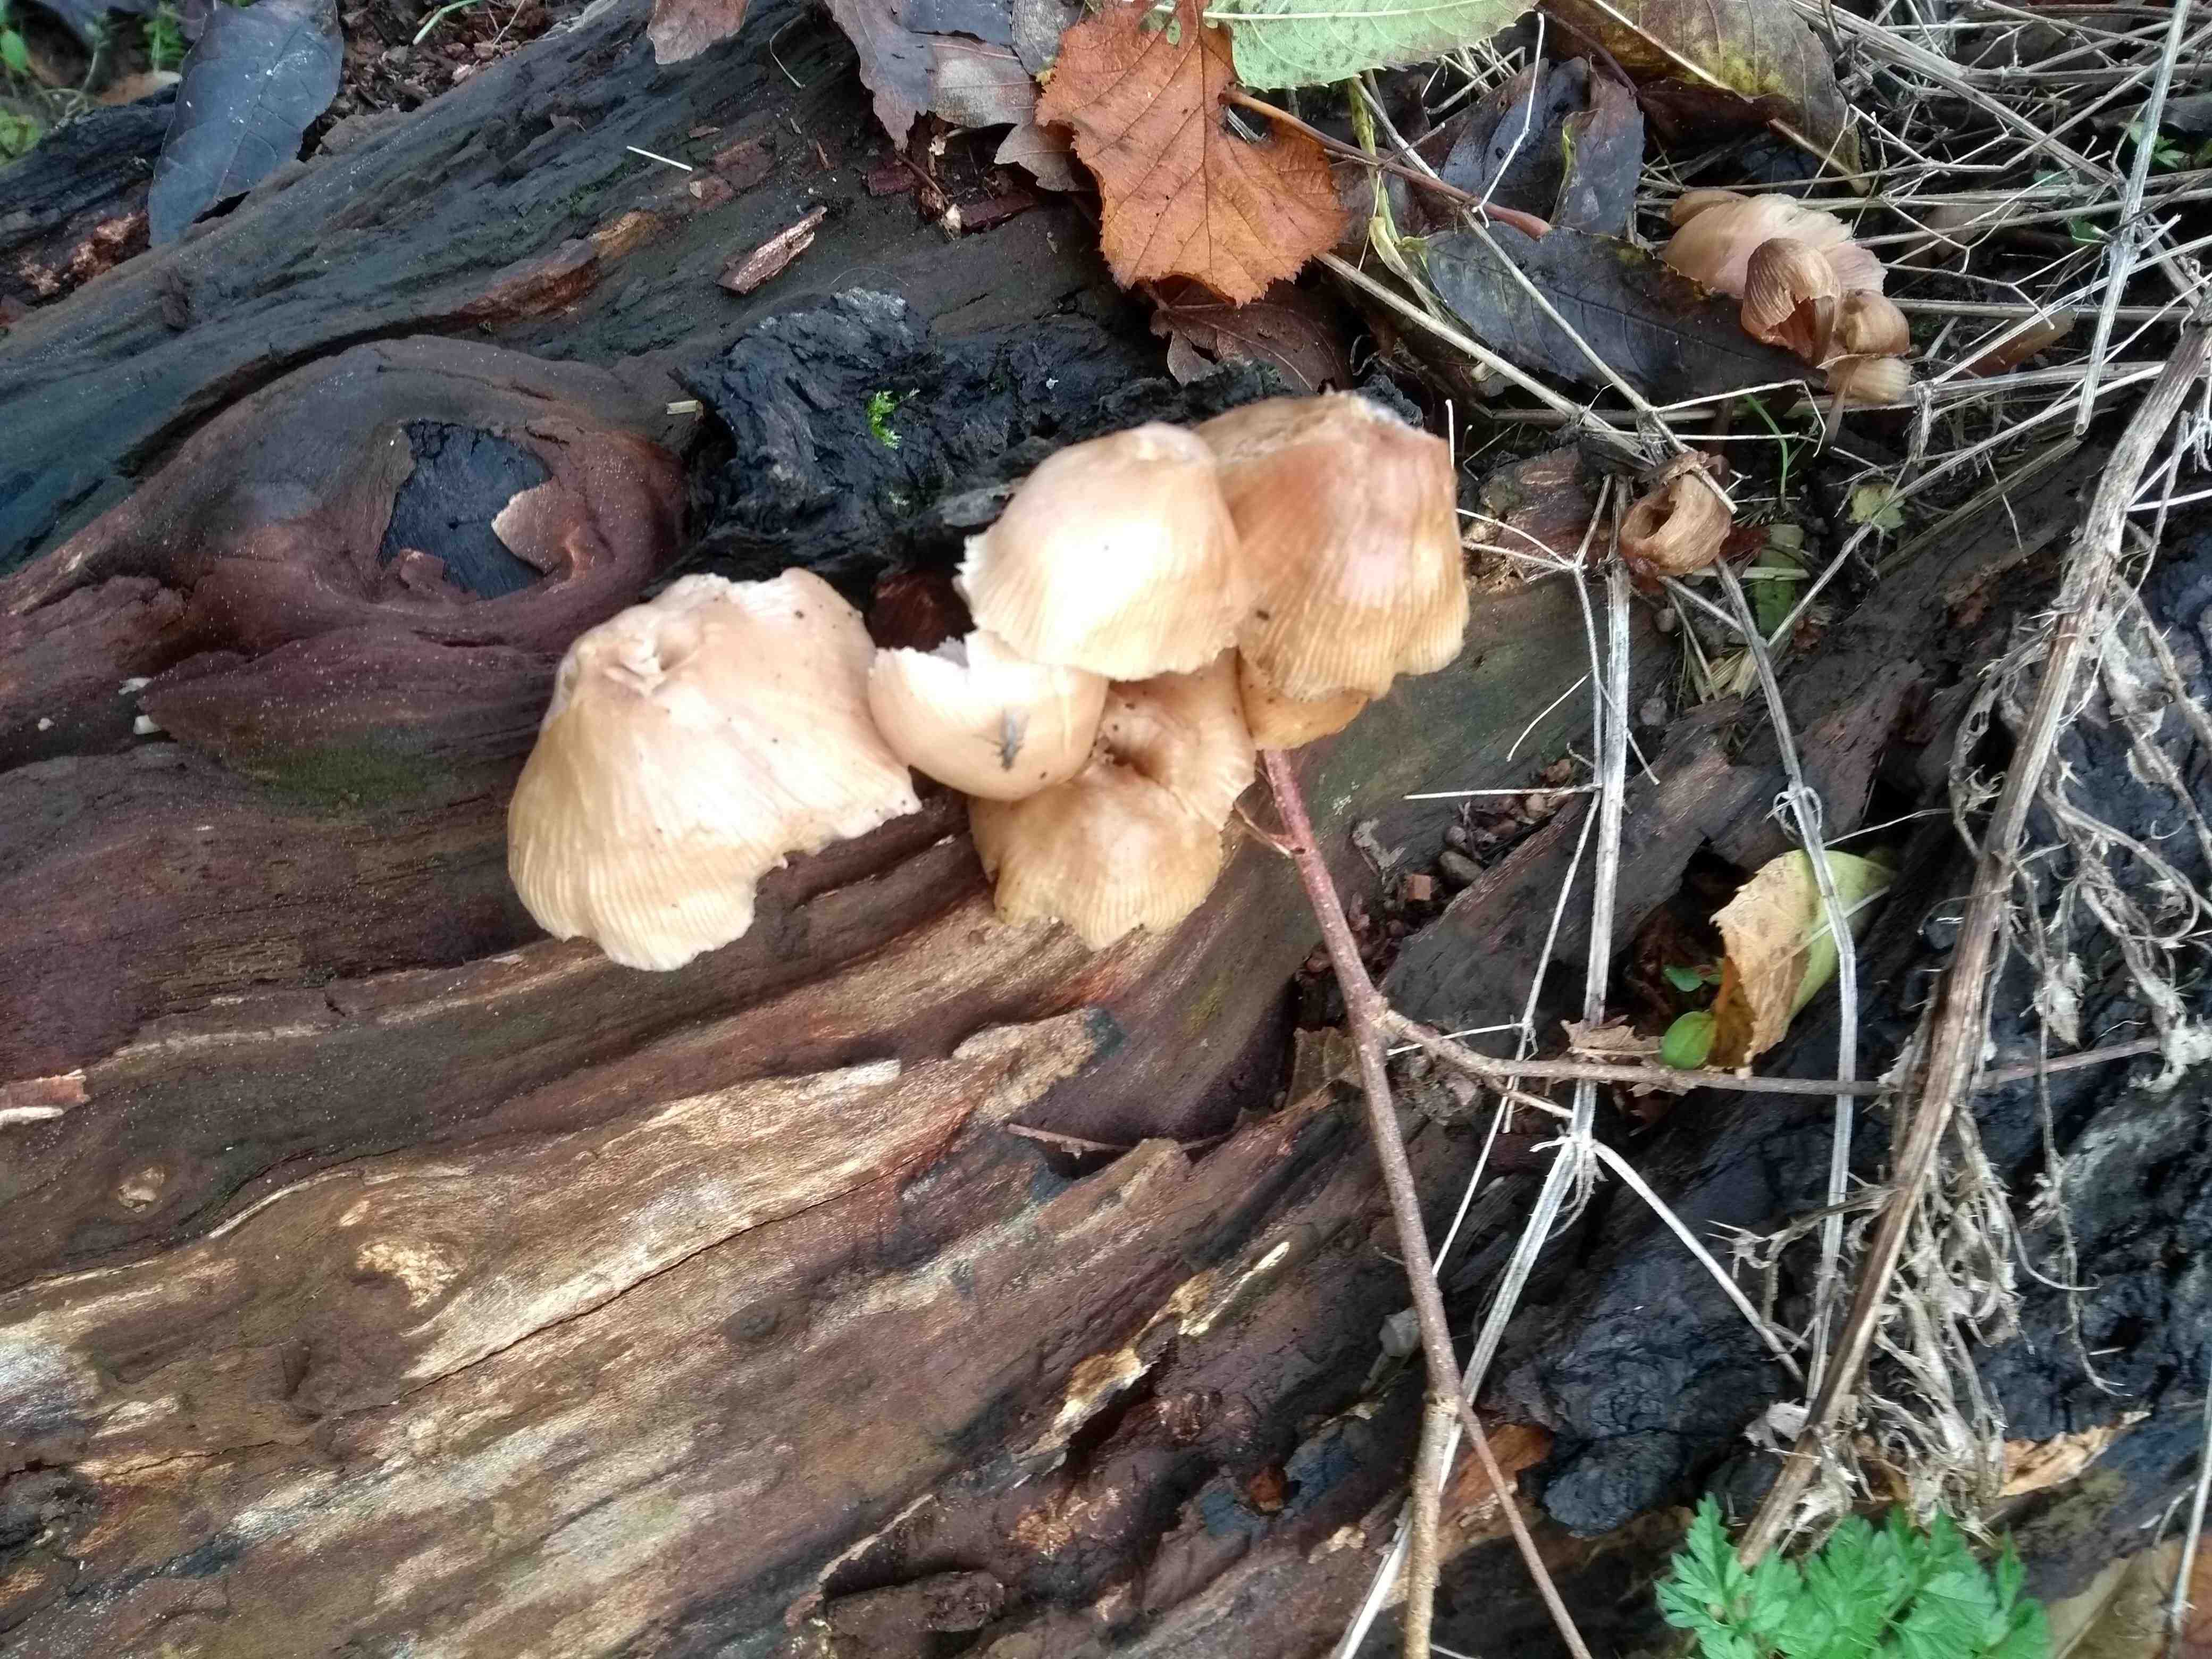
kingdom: Fungi
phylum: Basidiomycota
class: Agaricomycetes
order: Agaricales
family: Mycenaceae
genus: Mycena
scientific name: Mycena galericulata
